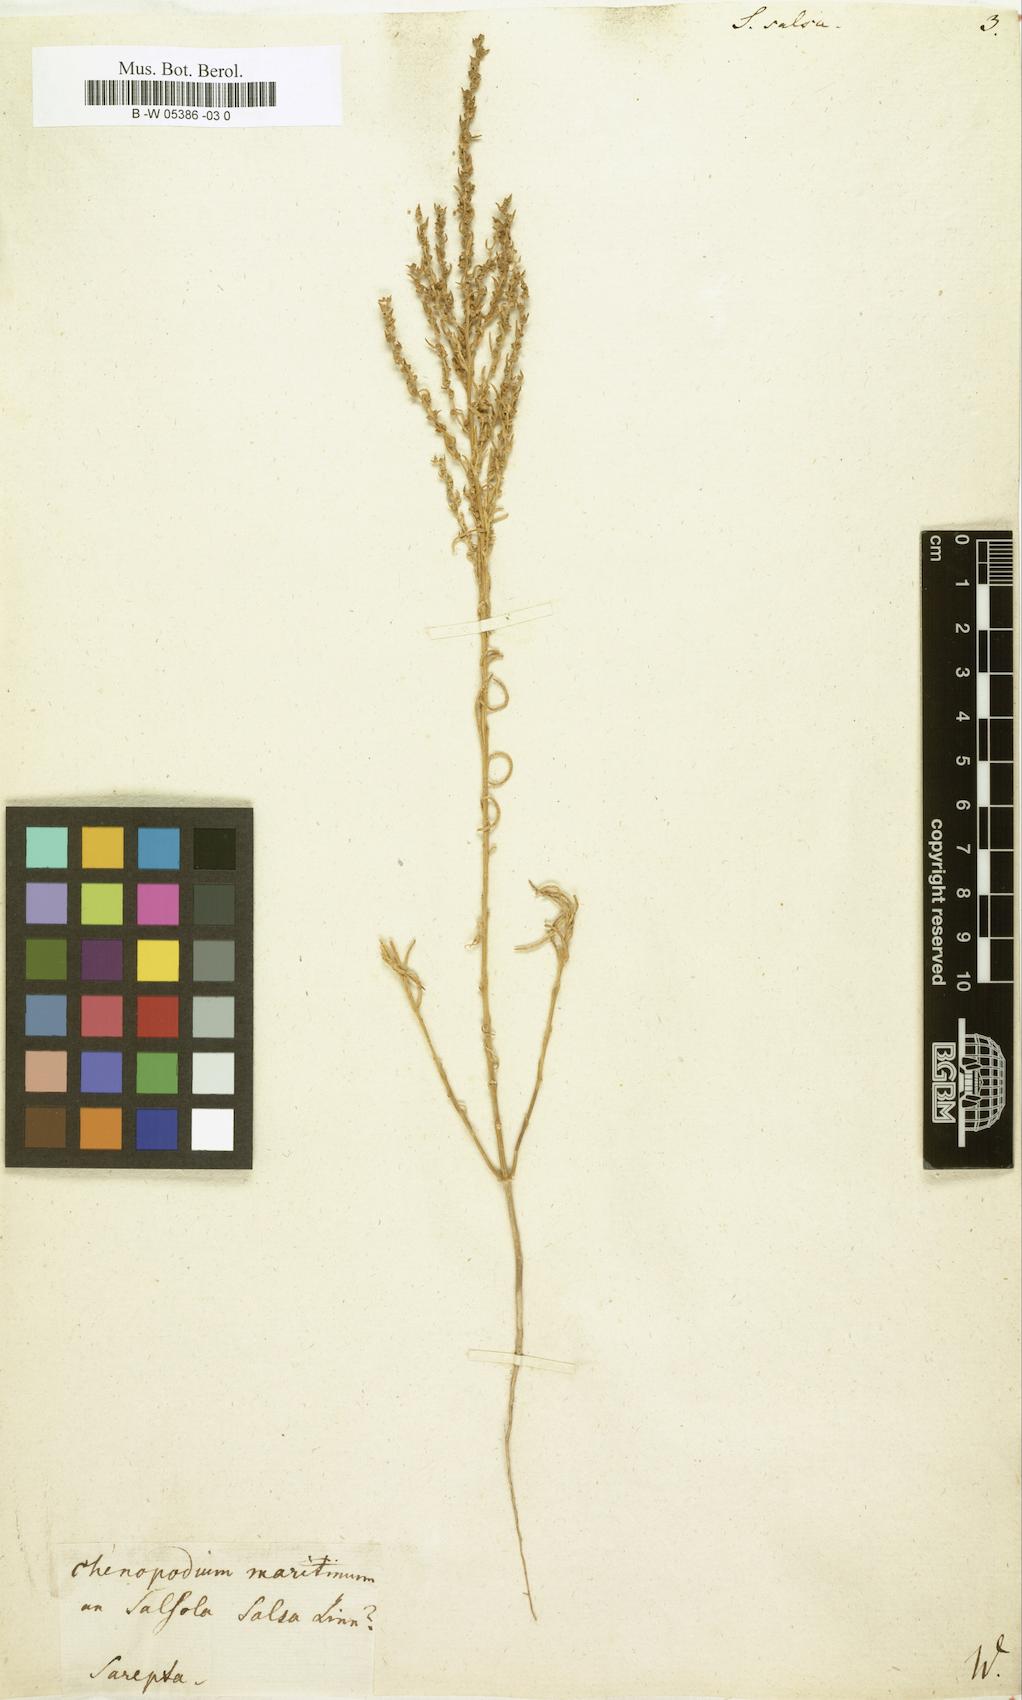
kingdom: Plantae
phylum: Tracheophyta
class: Magnoliopsida
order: Caryophyllales
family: Amaranthaceae
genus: Suaeda
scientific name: Suaeda
